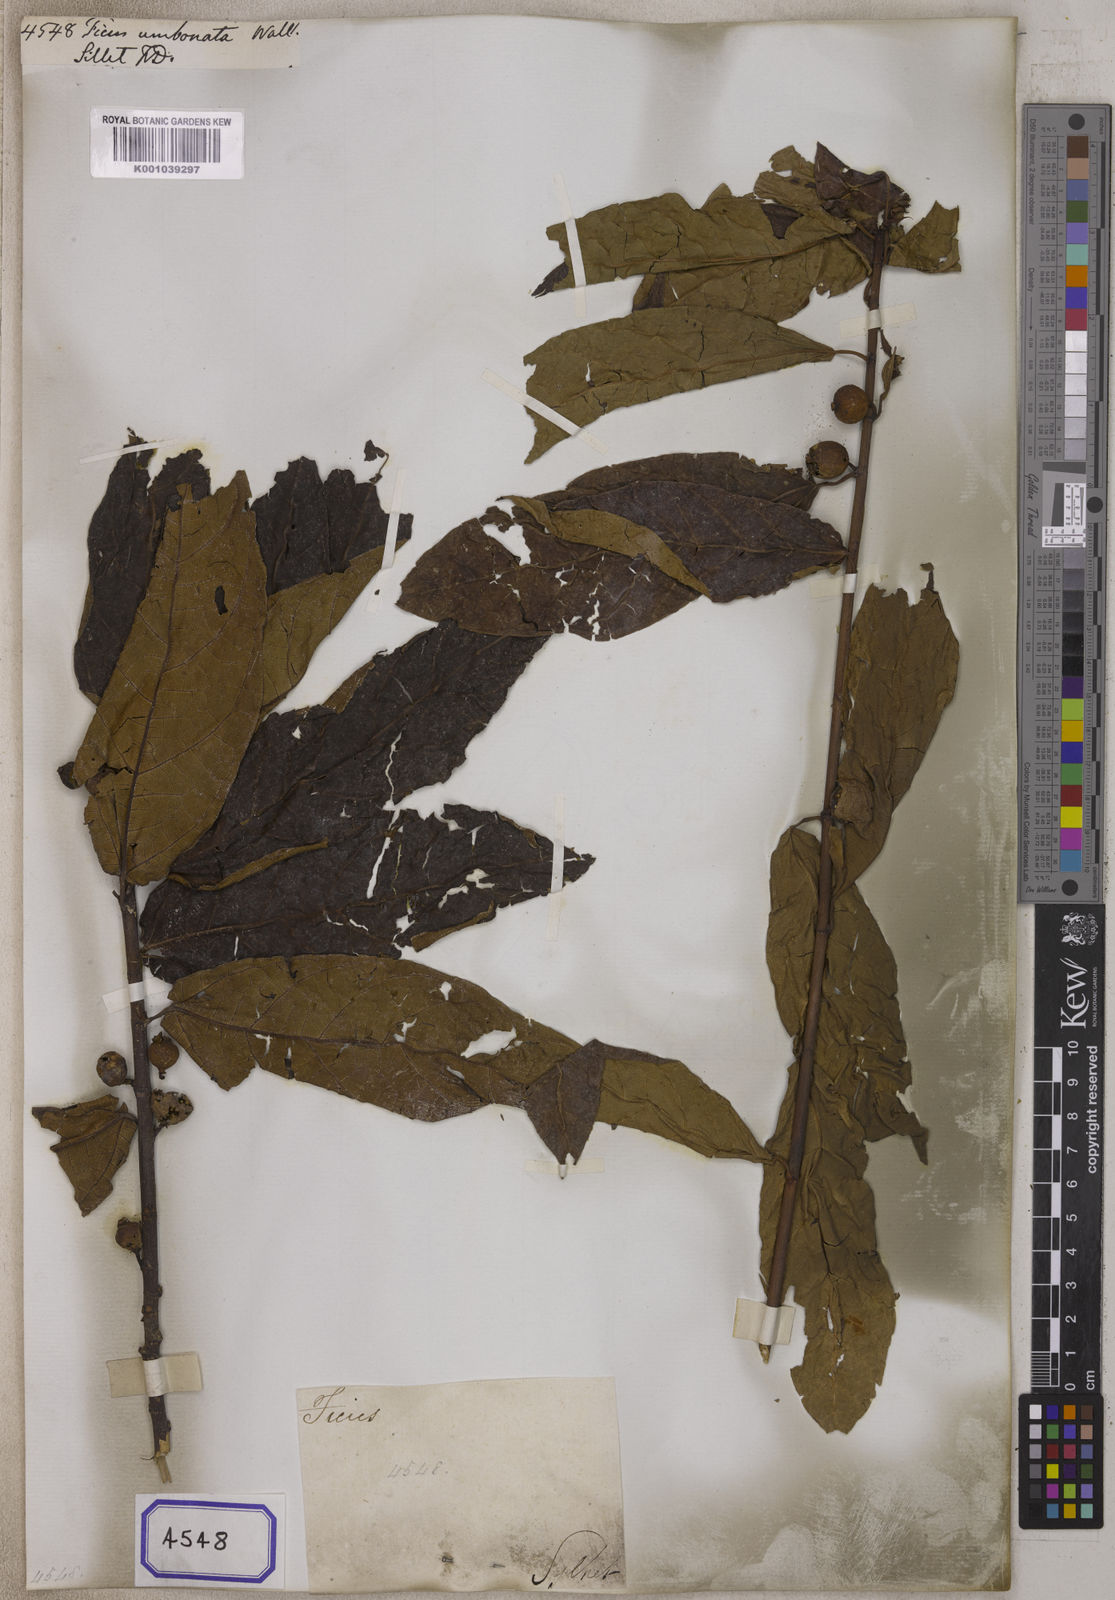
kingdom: Plantae
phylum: Tracheophyta
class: Magnoliopsida
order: Rosales
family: Moraceae
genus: Ficus
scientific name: Ficus
